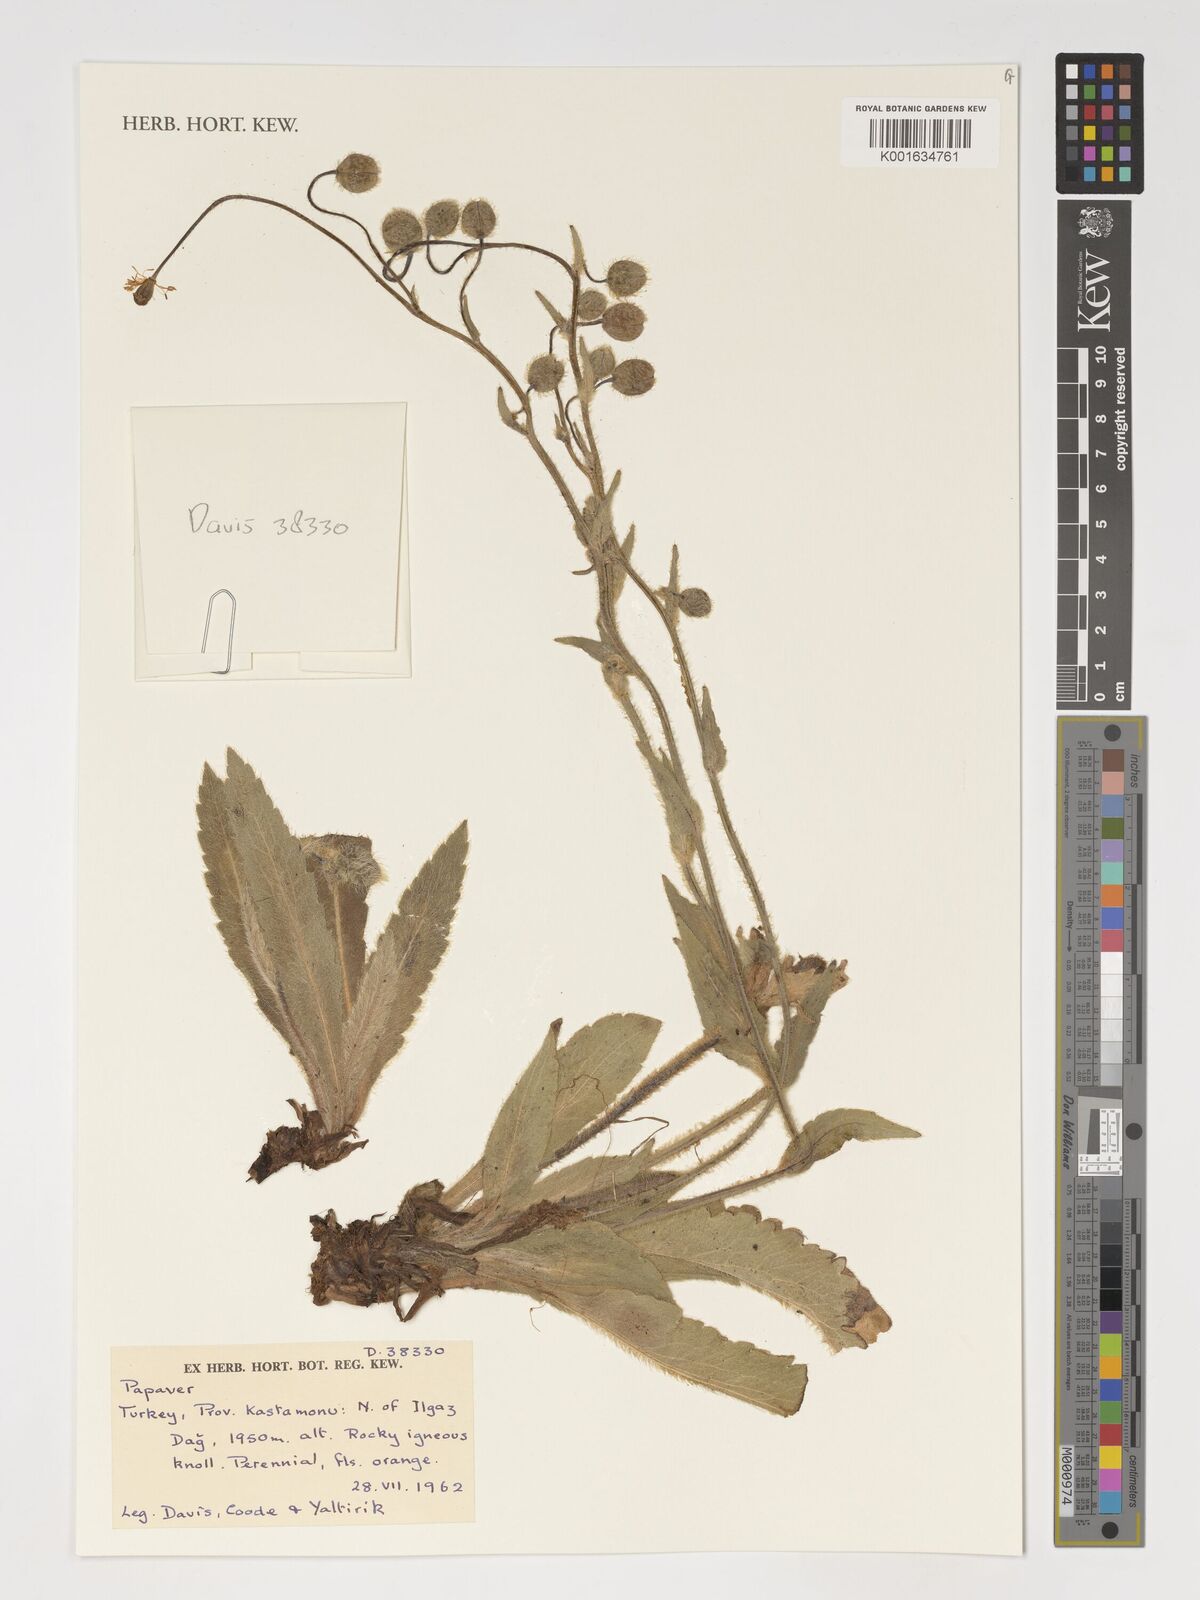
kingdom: Plantae
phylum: Tracheophyta
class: Magnoliopsida
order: Ranunculales
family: Papaveraceae
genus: Papaver
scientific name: Papaver
